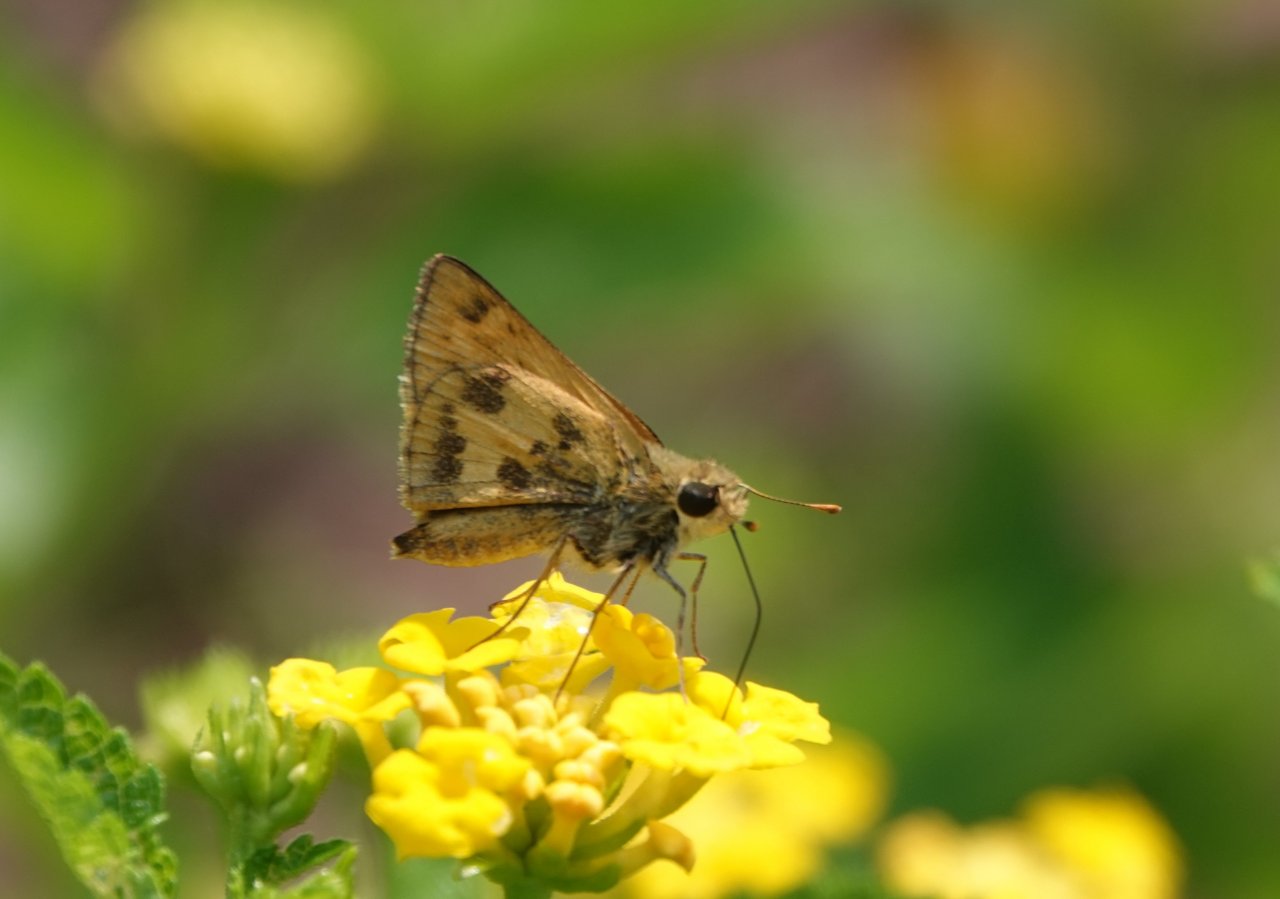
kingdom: Animalia
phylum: Arthropoda
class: Insecta
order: Lepidoptera
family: Hesperiidae
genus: Polites
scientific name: Polites vibex
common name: Whirlabout
